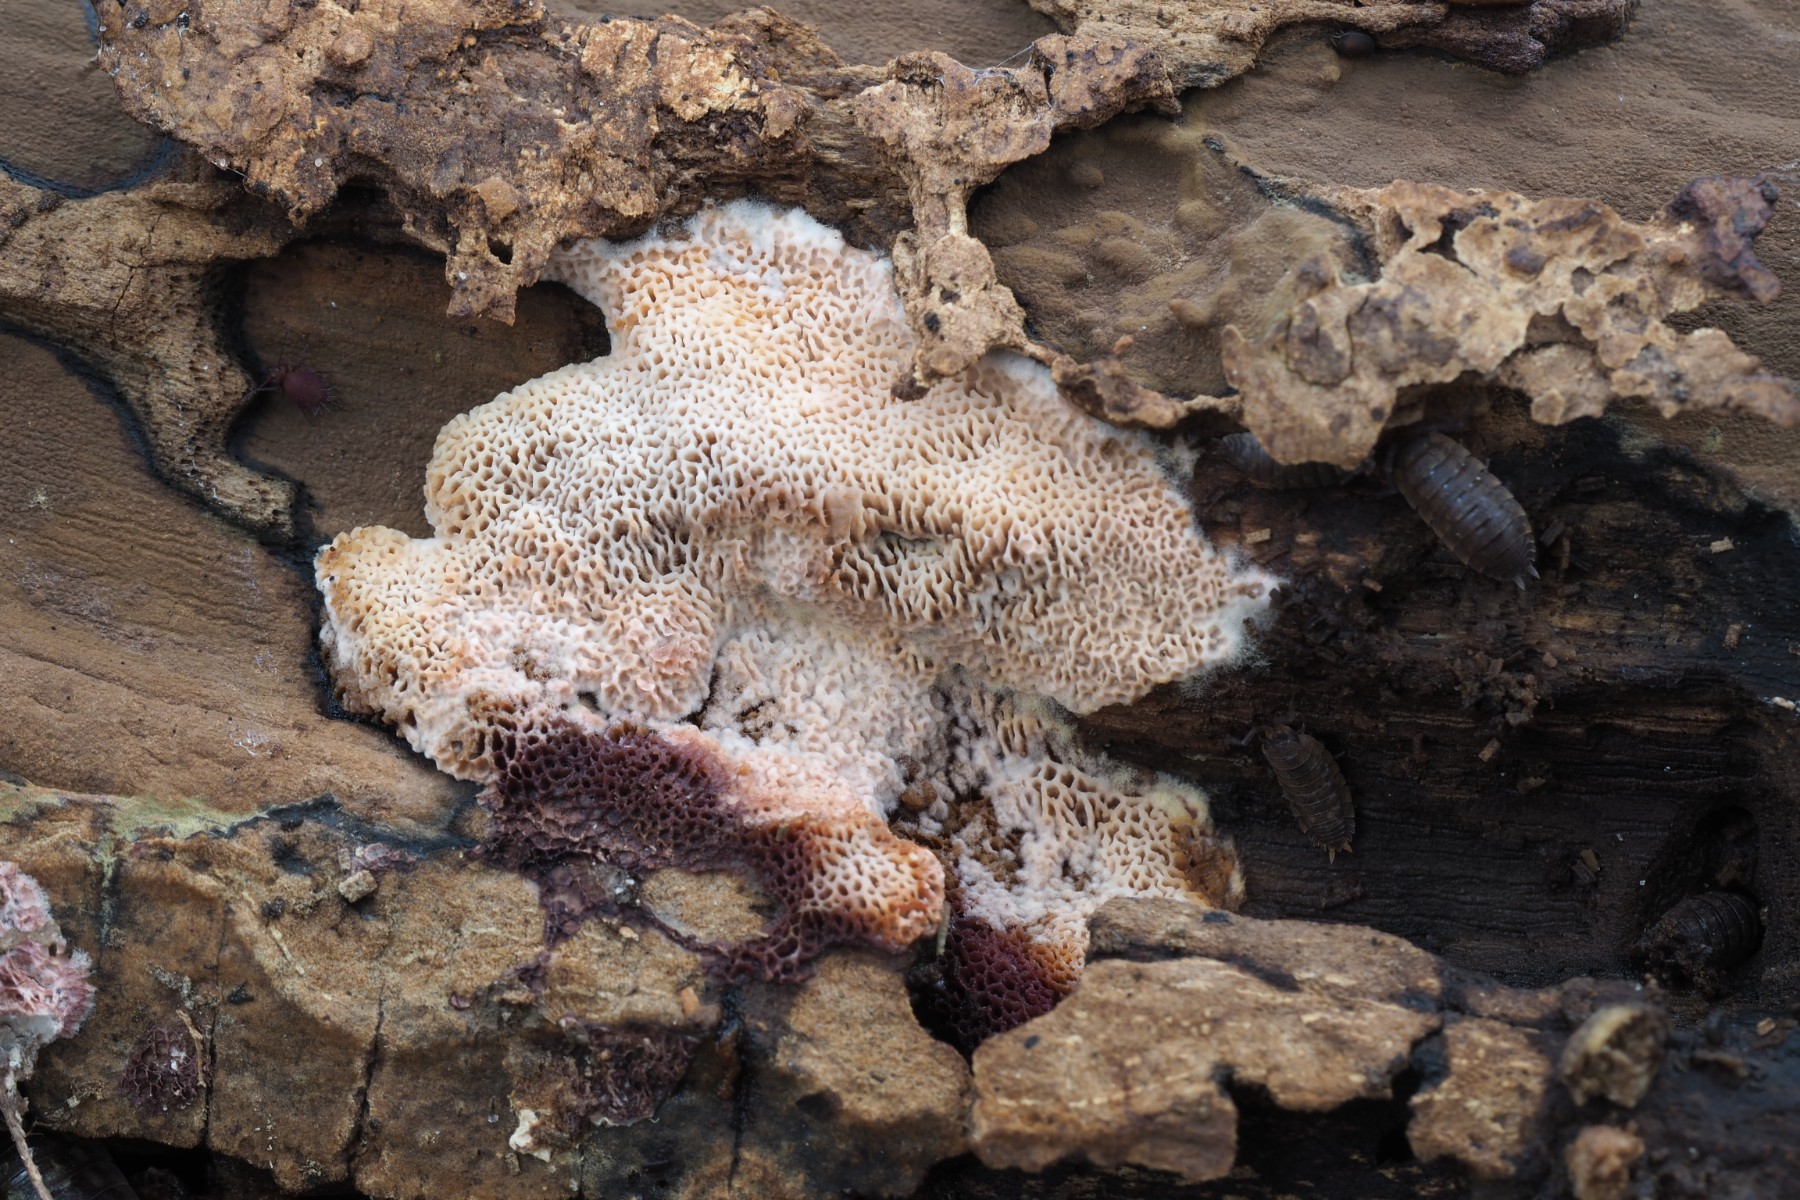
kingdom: Fungi
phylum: Basidiomycota
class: Agaricomycetes
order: Polyporales
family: Irpicaceae
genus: Ceriporia
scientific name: Ceriporia purpurea
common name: purpur-voksporesvamp
